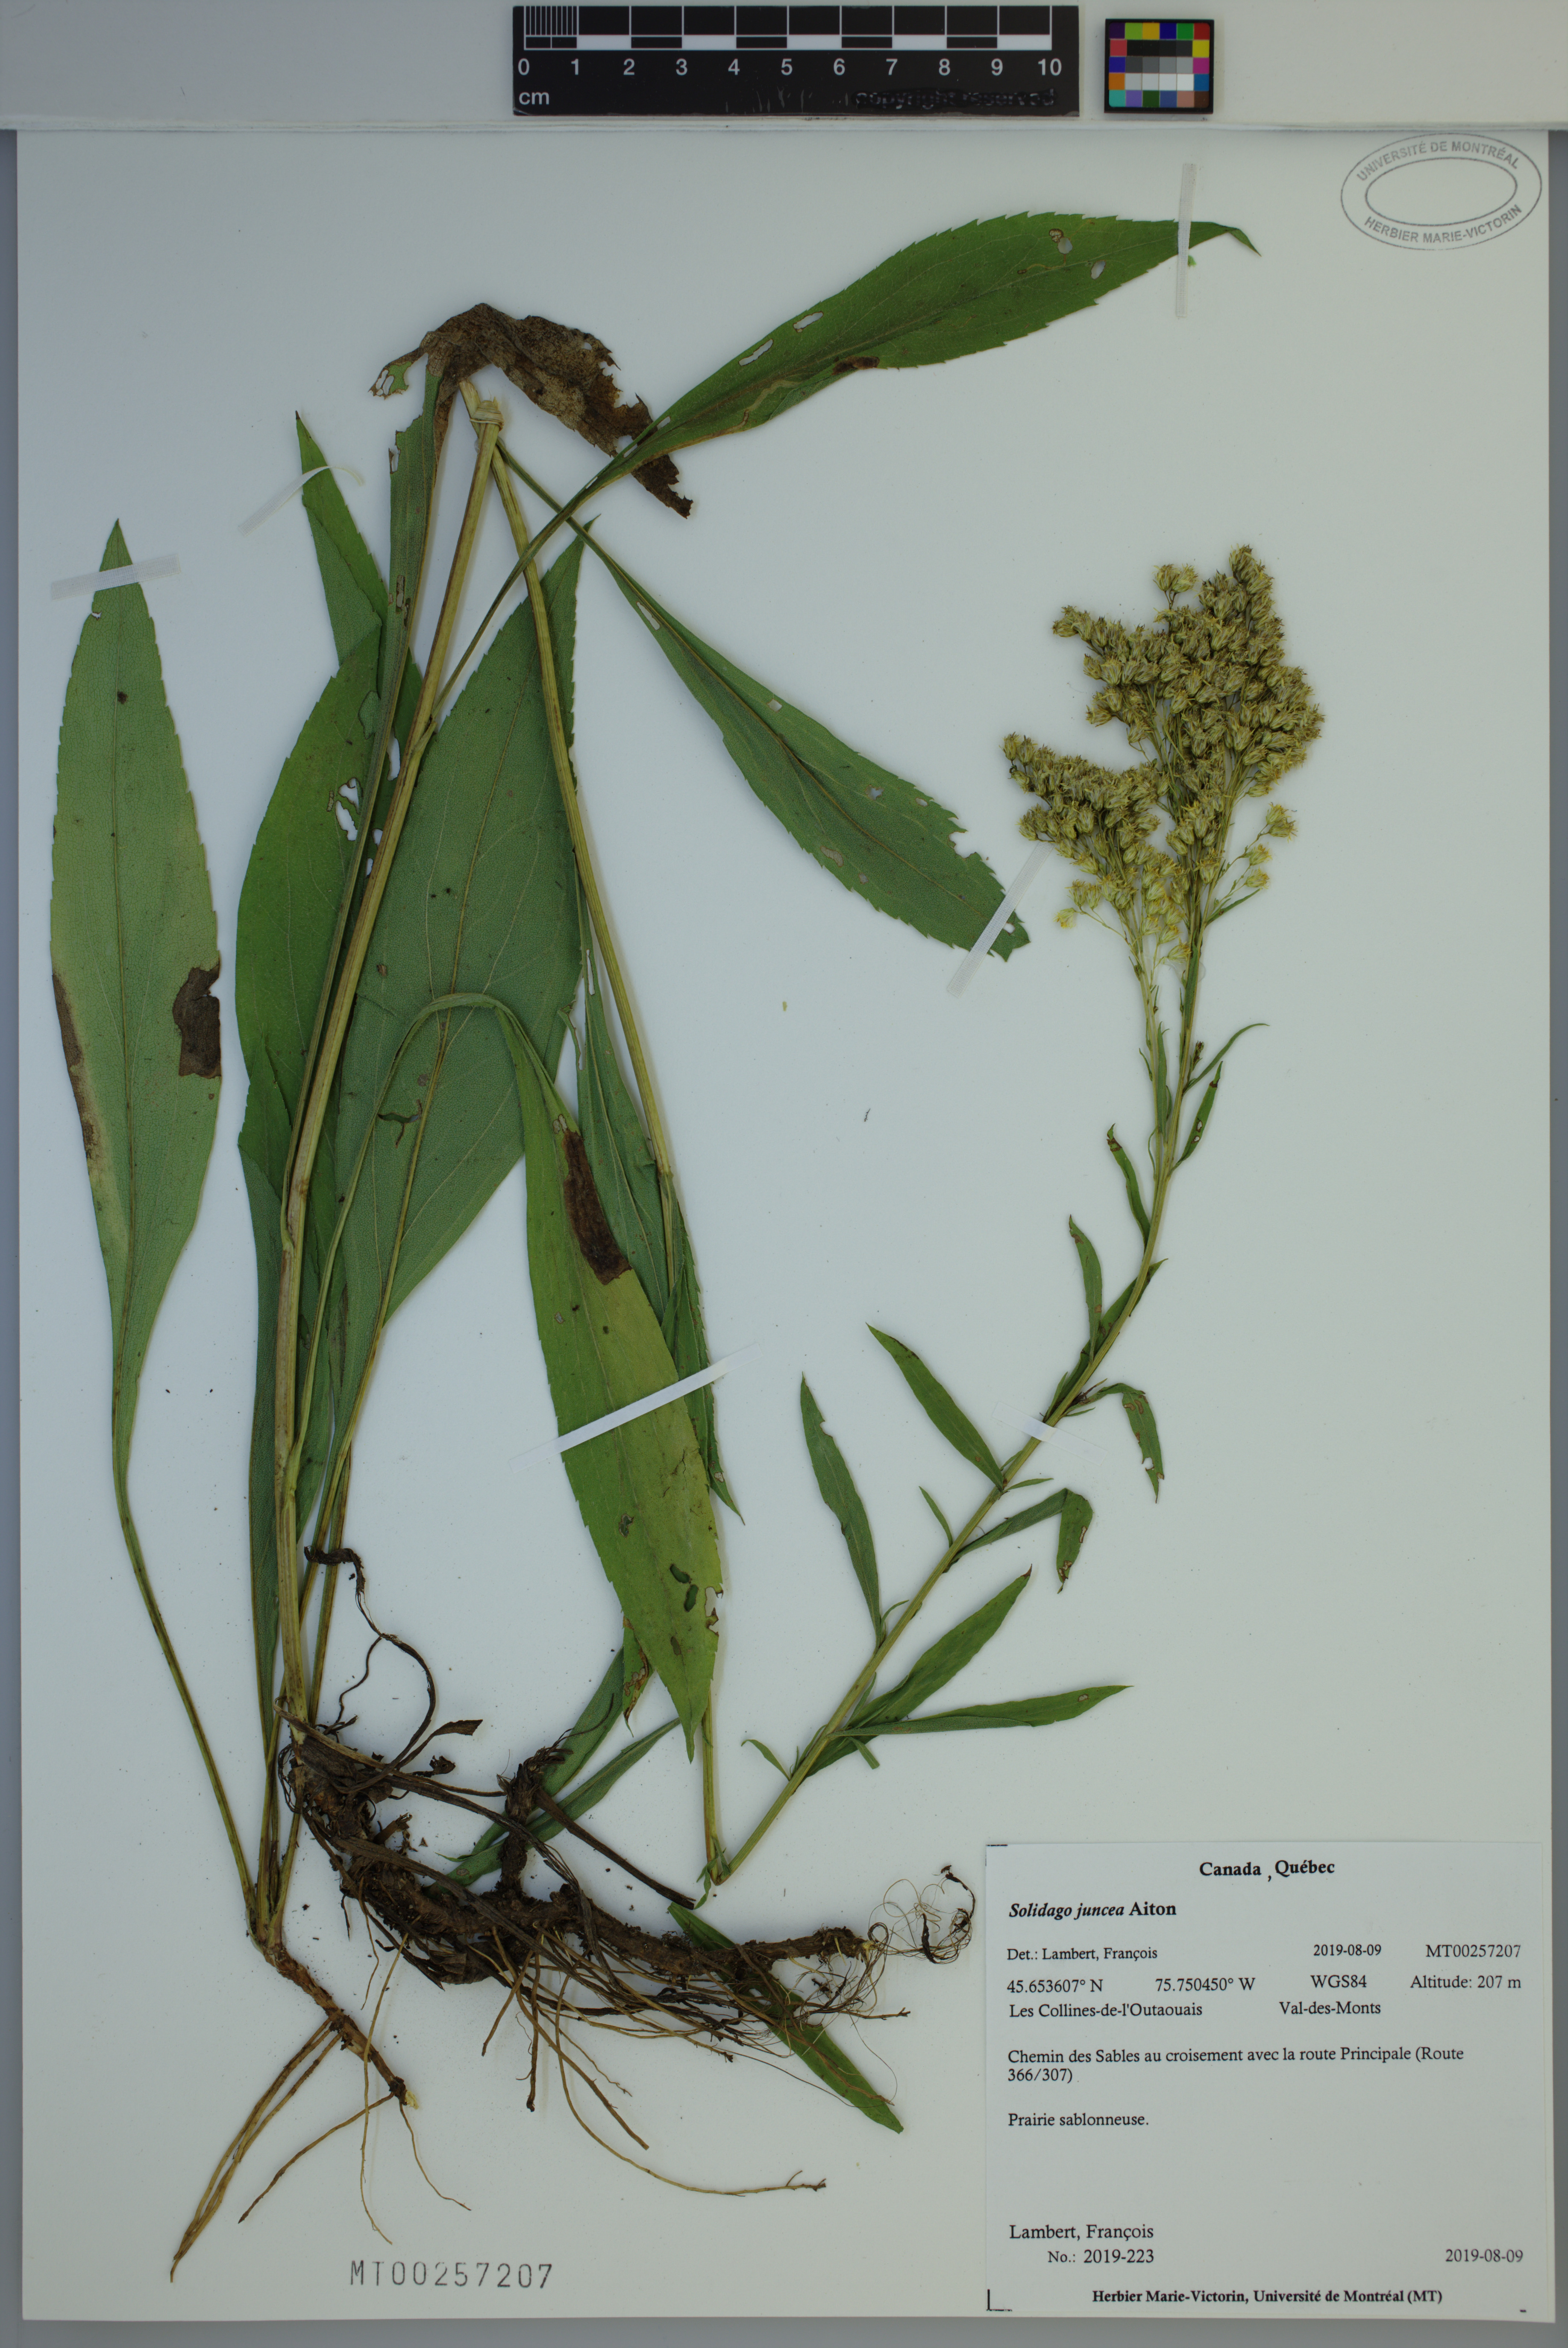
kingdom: Plantae
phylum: Tracheophyta
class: Magnoliopsida
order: Asterales
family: Asteraceae
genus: Solidago
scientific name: Solidago juncea
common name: Early goldenrod
